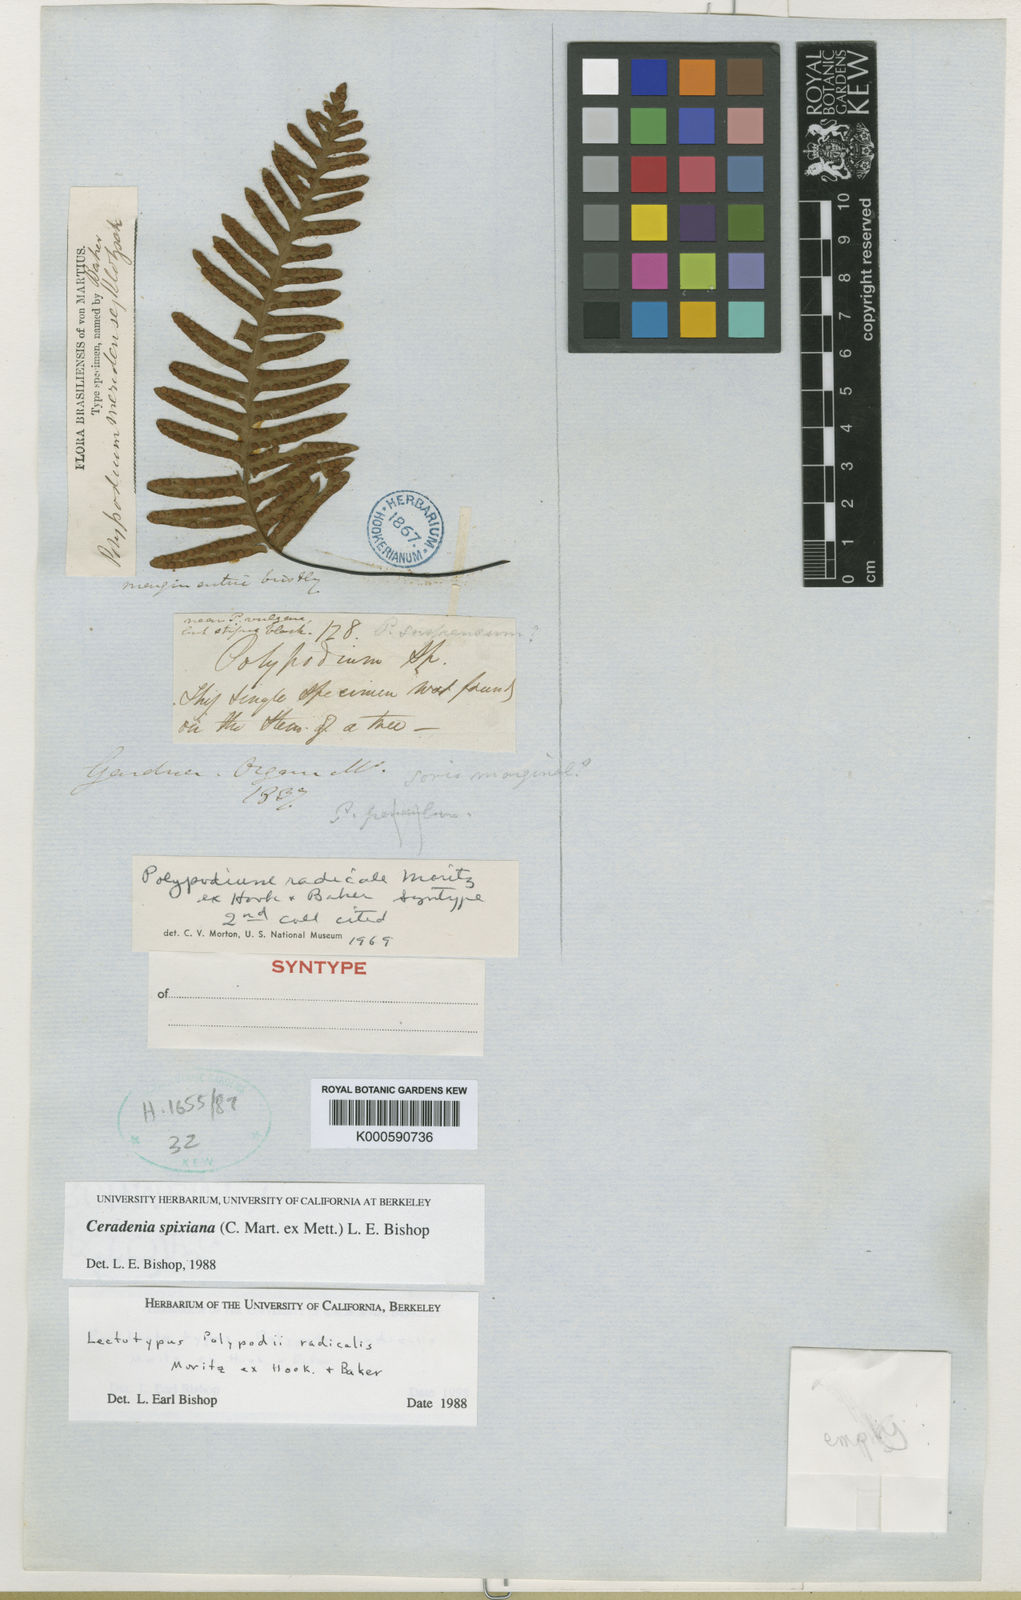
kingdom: Plantae
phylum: Tracheophyta
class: Polypodiopsida
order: Polypodiales
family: Polypodiaceae
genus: Ceradenia
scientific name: Ceradenia
